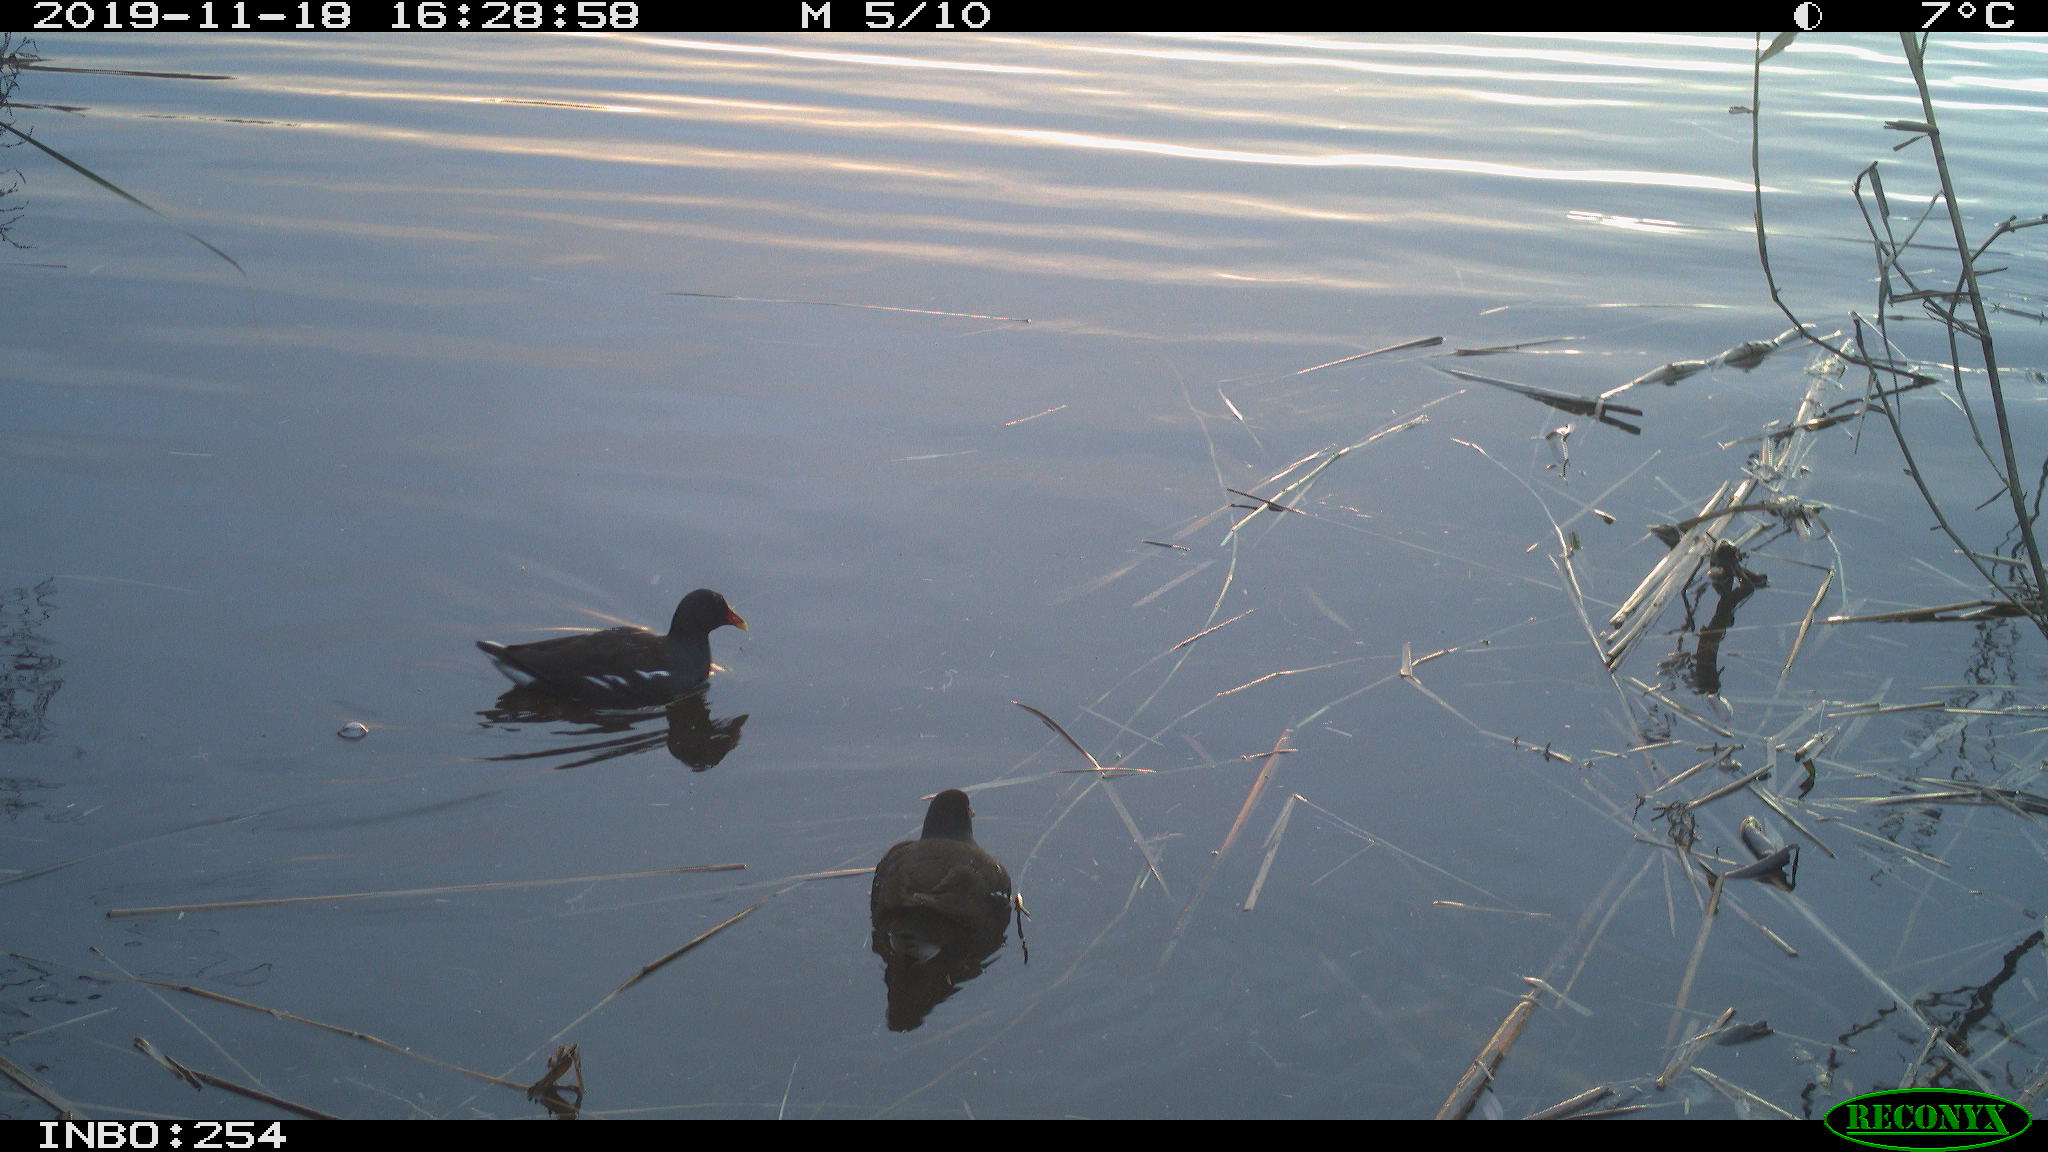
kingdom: Animalia
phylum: Chordata
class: Aves
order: Gruiformes
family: Rallidae
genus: Fulica
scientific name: Fulica atra
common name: Eurasian coot
